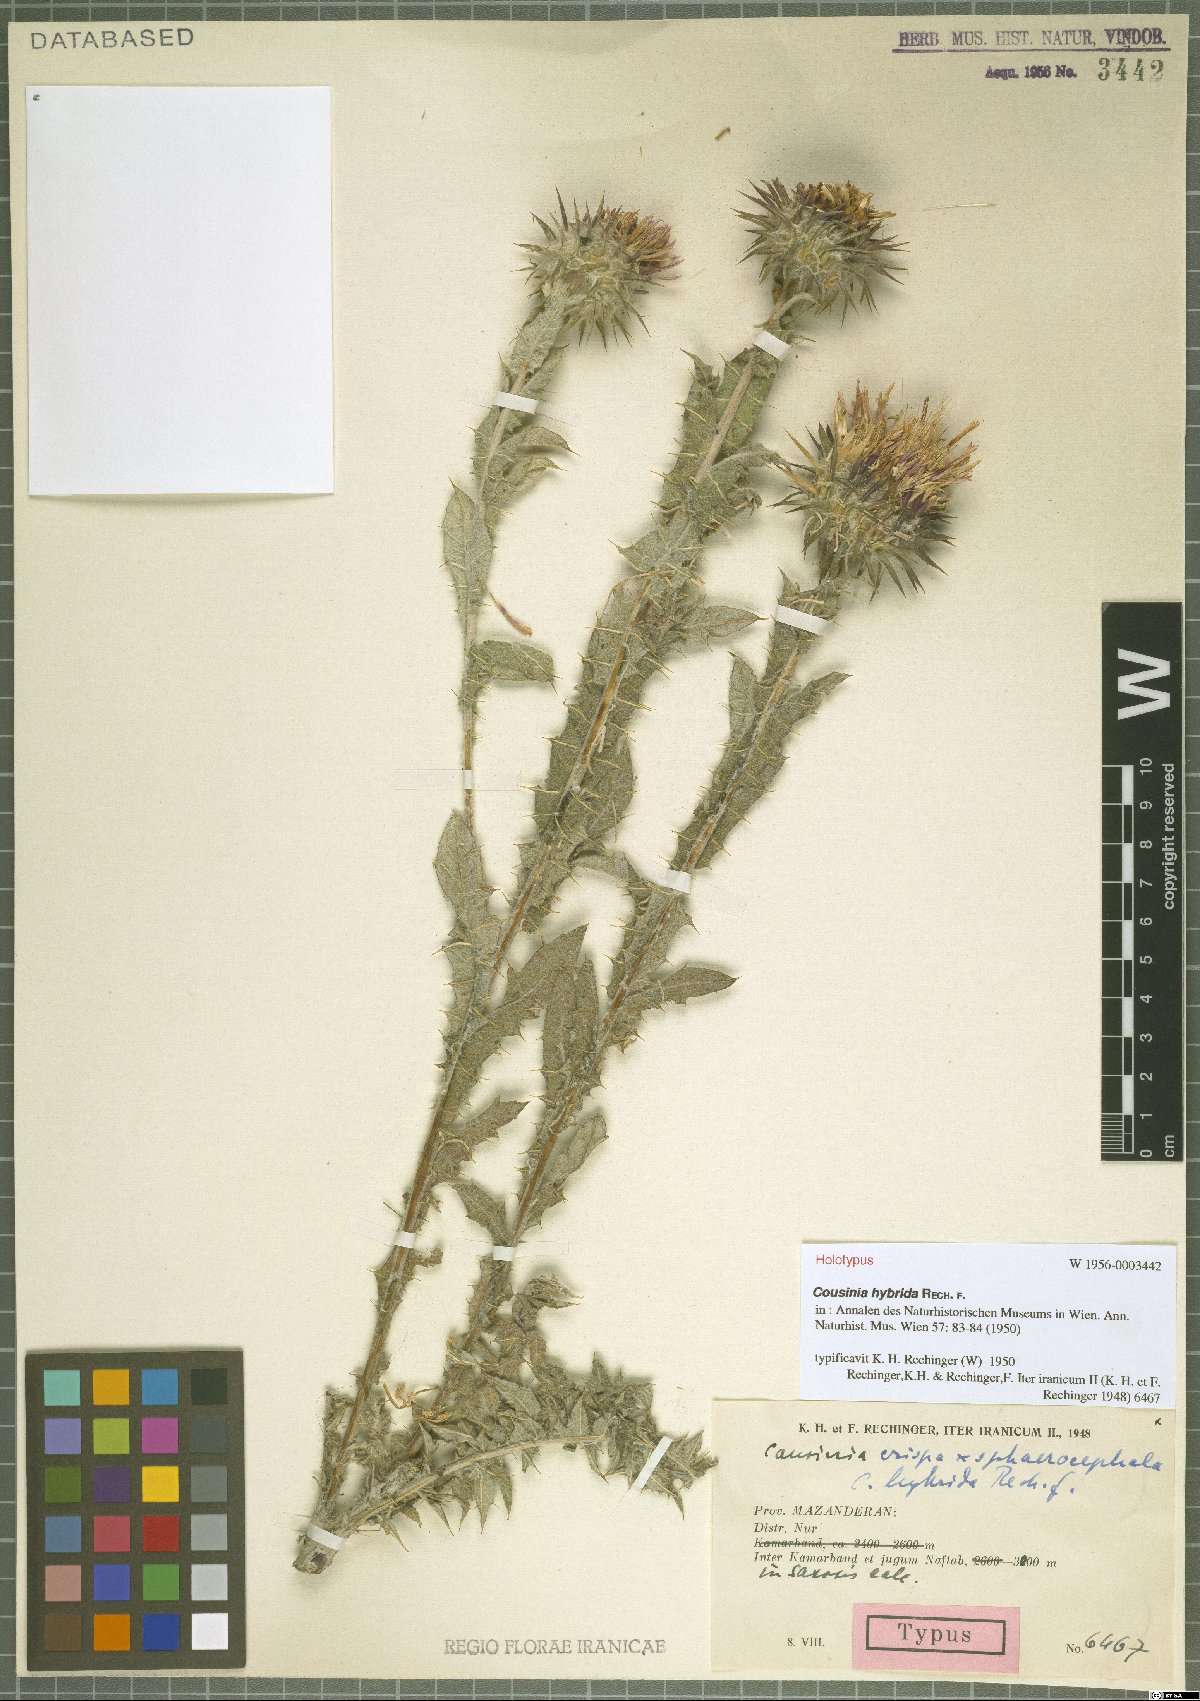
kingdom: Plantae
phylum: Tracheophyta
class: Magnoliopsida
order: Asterales
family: Asteraceae
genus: Cousinia
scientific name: Cousinia hybrida
